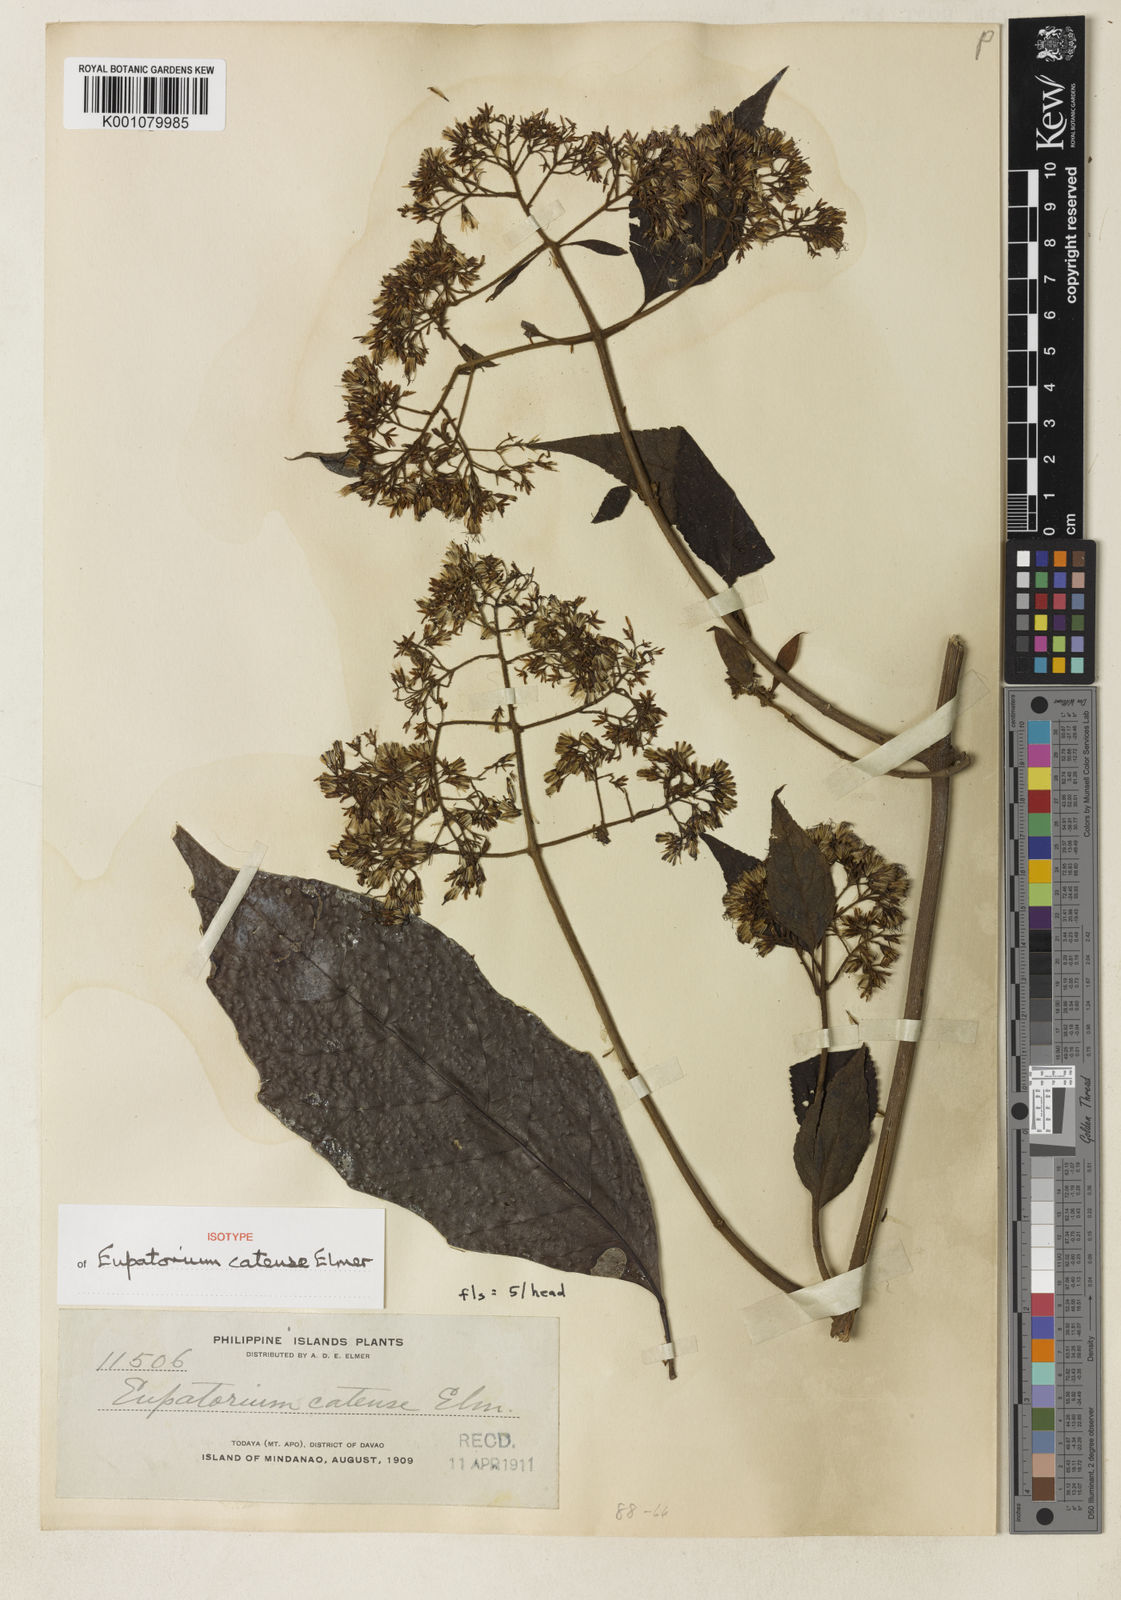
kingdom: Plantae
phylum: Tracheophyta
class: Magnoliopsida
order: Asterales
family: Asteraceae
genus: Eupatorium
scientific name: Eupatorium camiguinense
